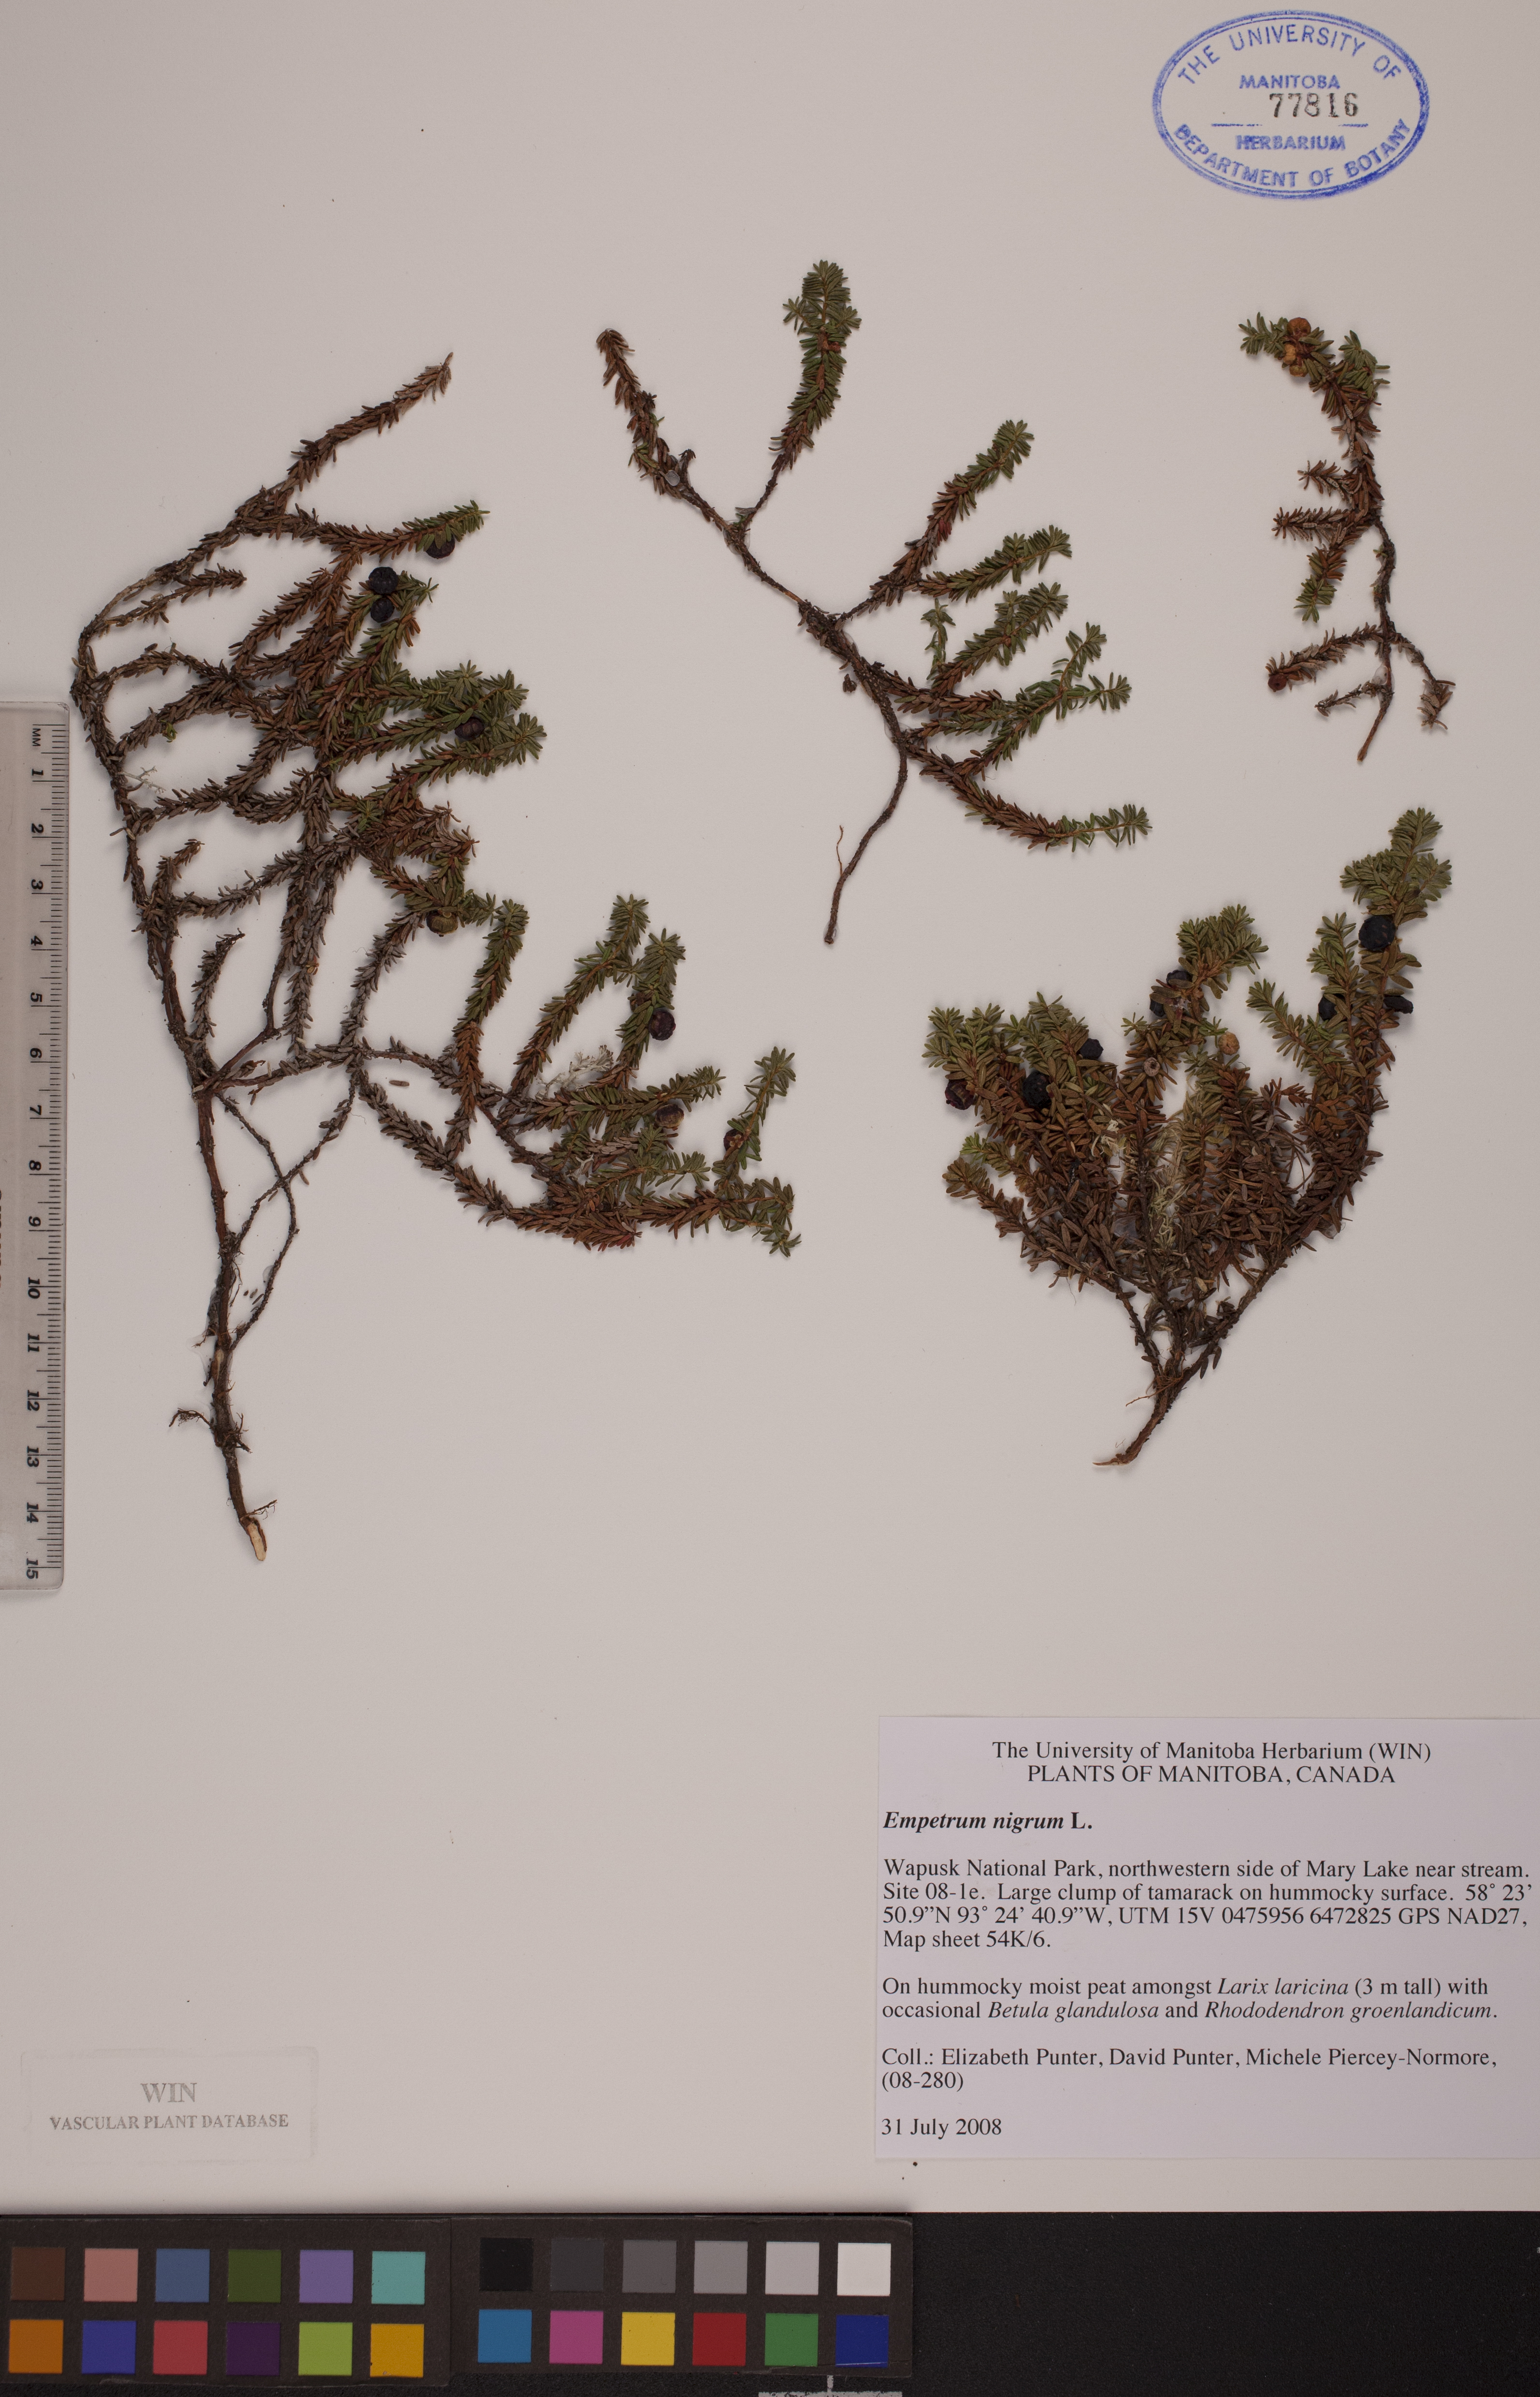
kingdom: Plantae
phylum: Tracheophyta
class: Magnoliopsida
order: Ericales
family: Ericaceae
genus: Empetrum
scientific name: Empetrum nigrum
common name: Black crowberry
